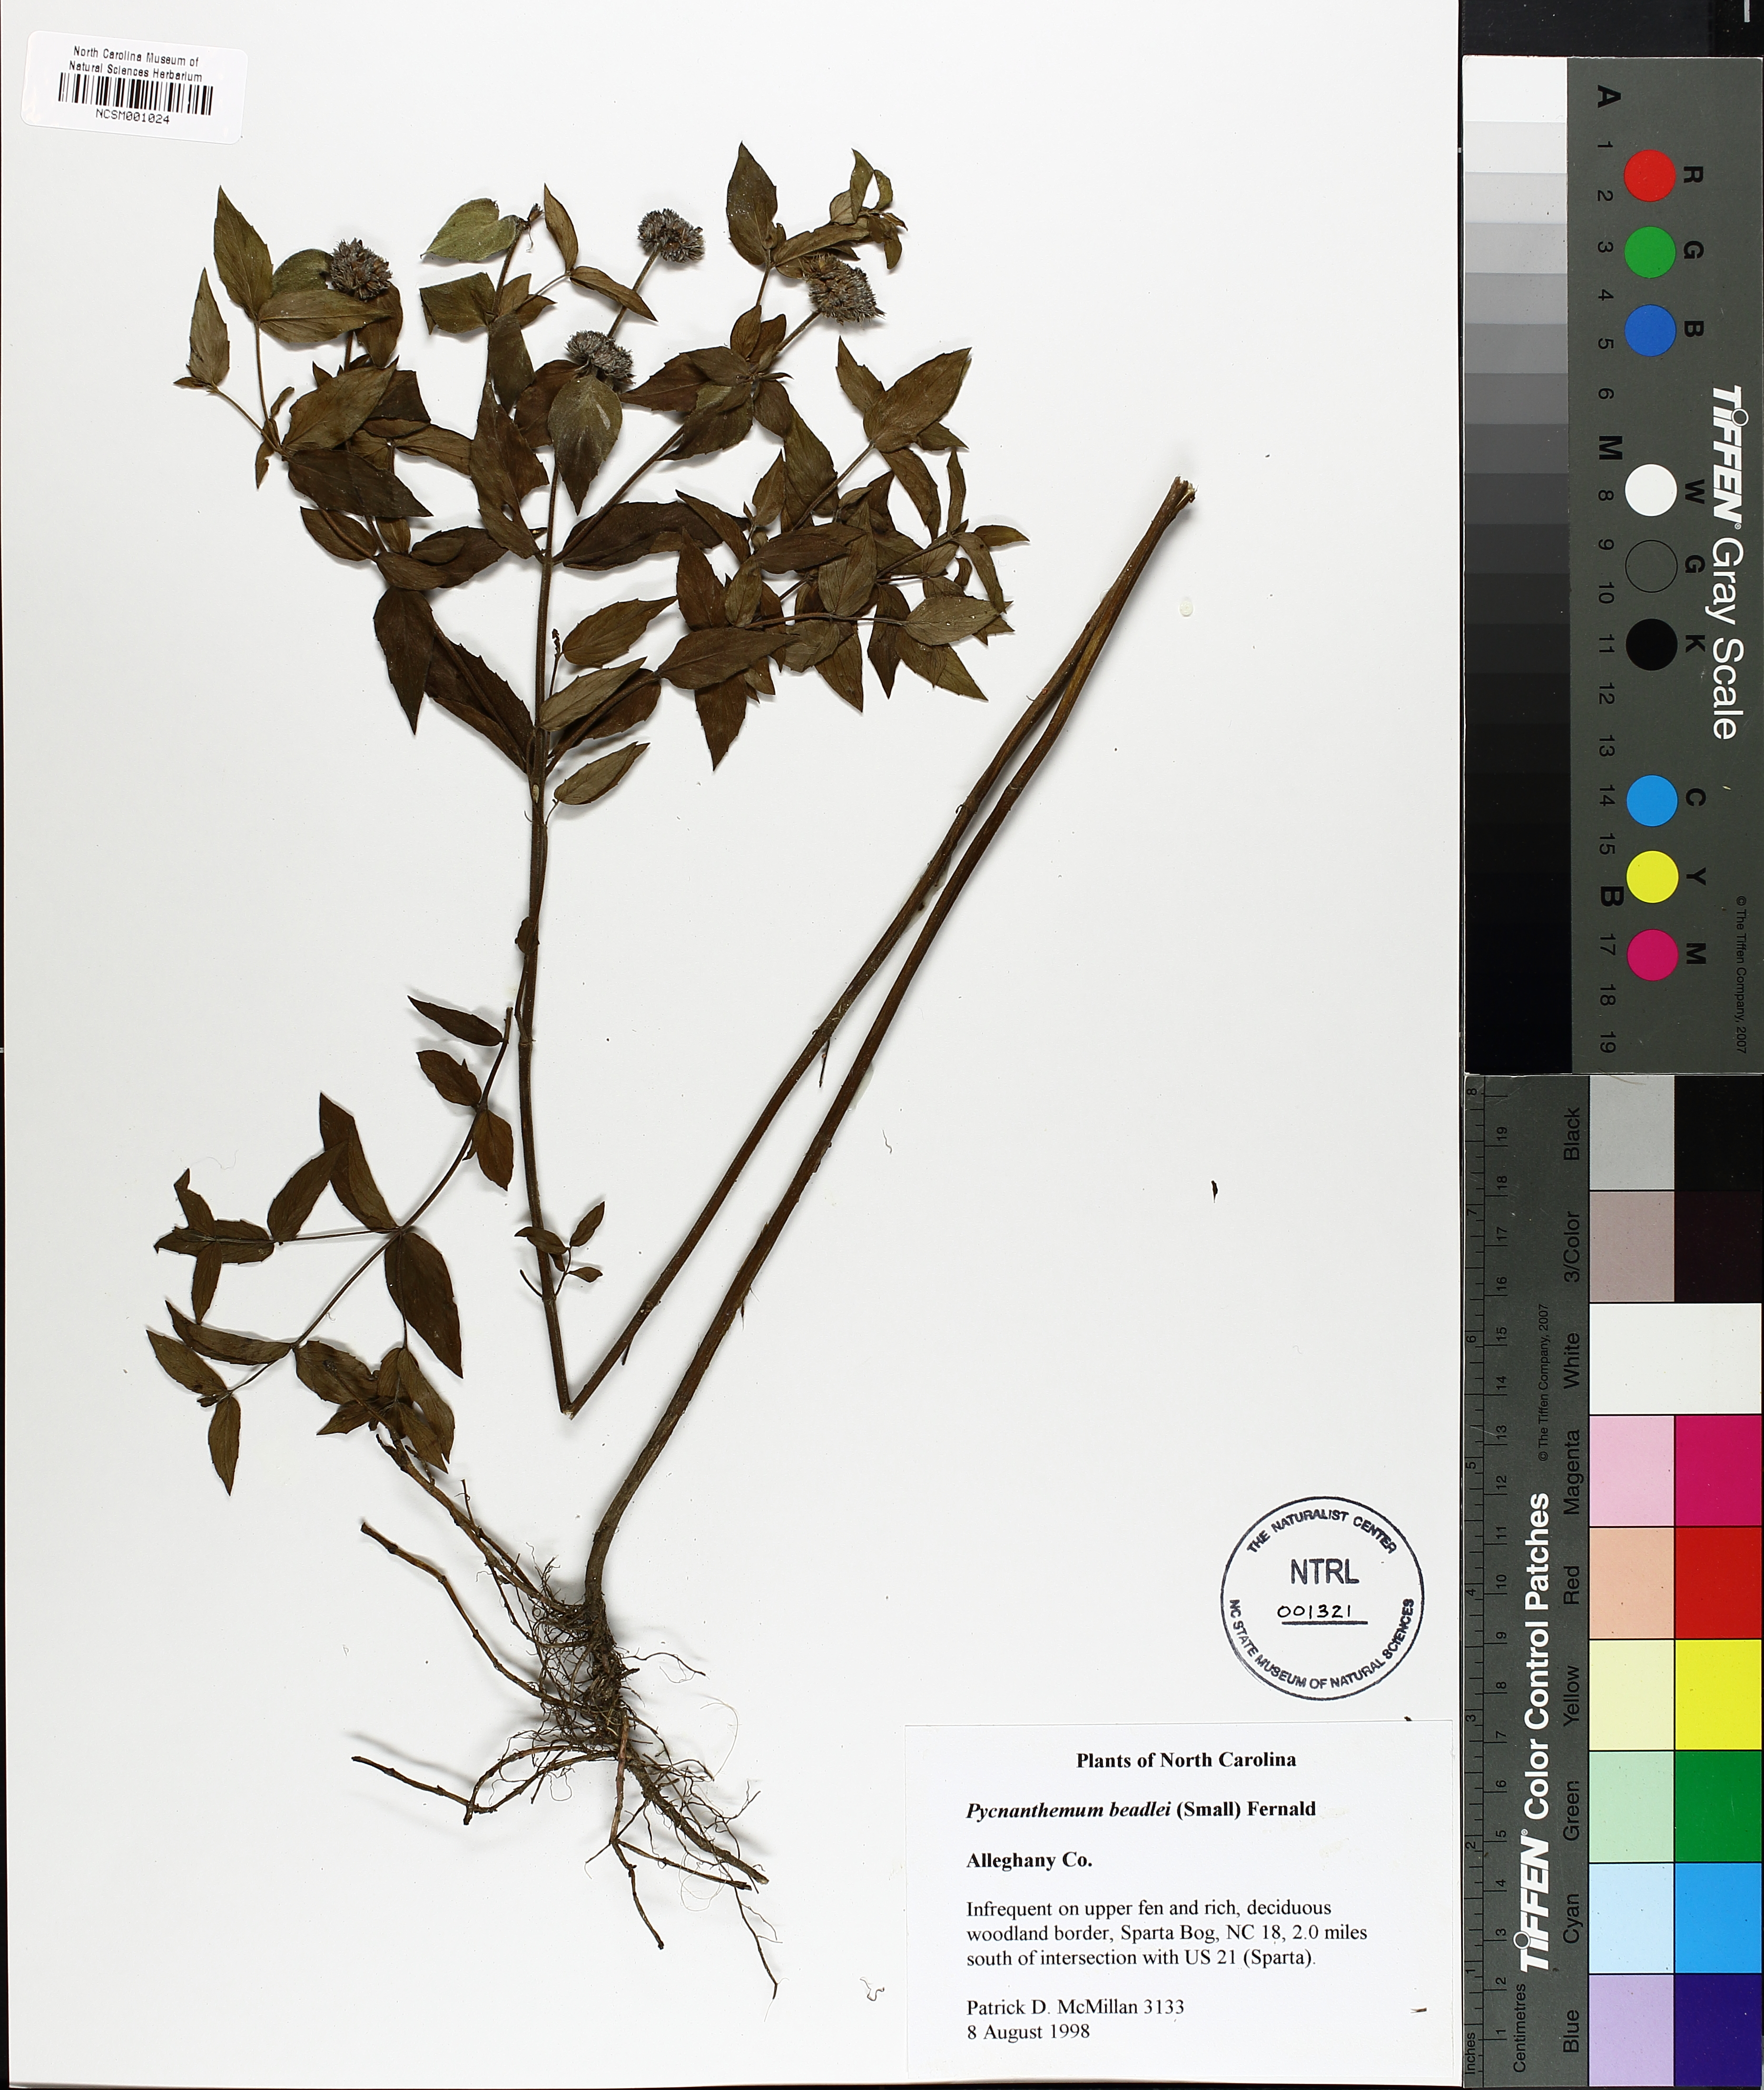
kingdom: Plantae
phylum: Tracheophyta
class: Magnoliopsida
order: Lamiales
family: Lamiaceae
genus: Pycnanthemum
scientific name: Pycnanthemum beadlei
